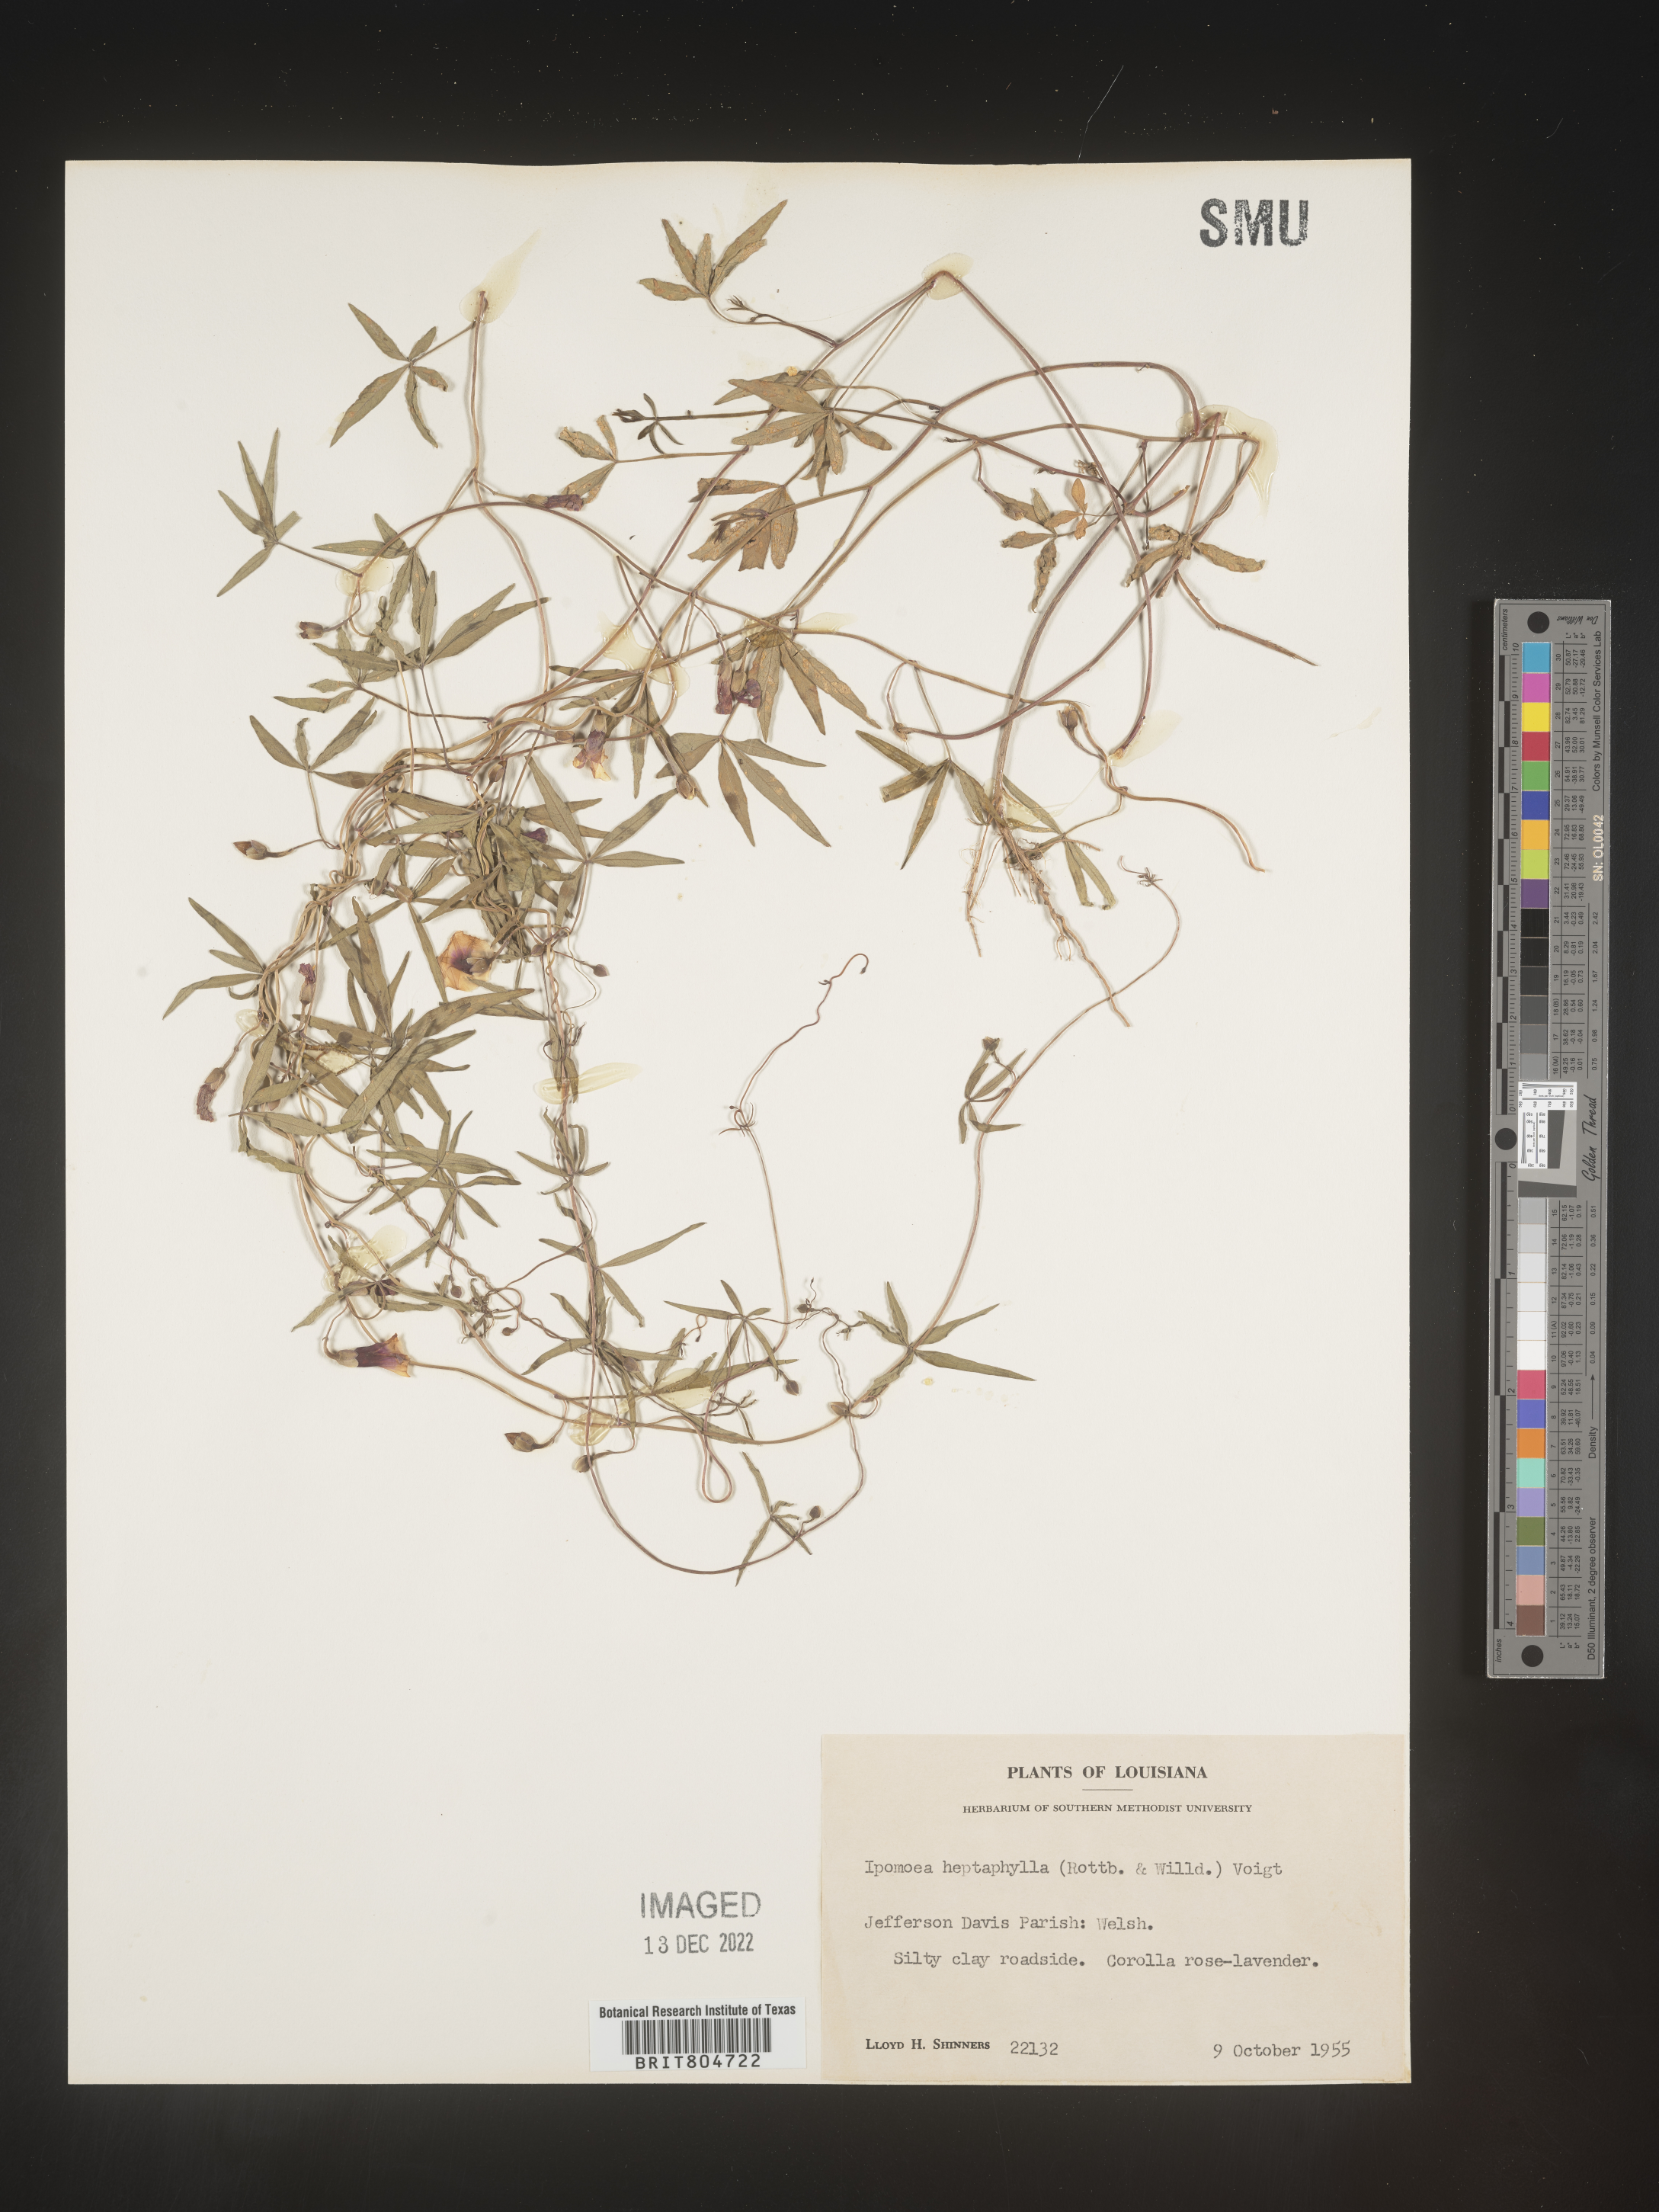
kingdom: Plantae
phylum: Tracheophyta
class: Magnoliopsida
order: Solanales
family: Convolvulaceae
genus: Ipomoea
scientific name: Ipomoea tenuipes
